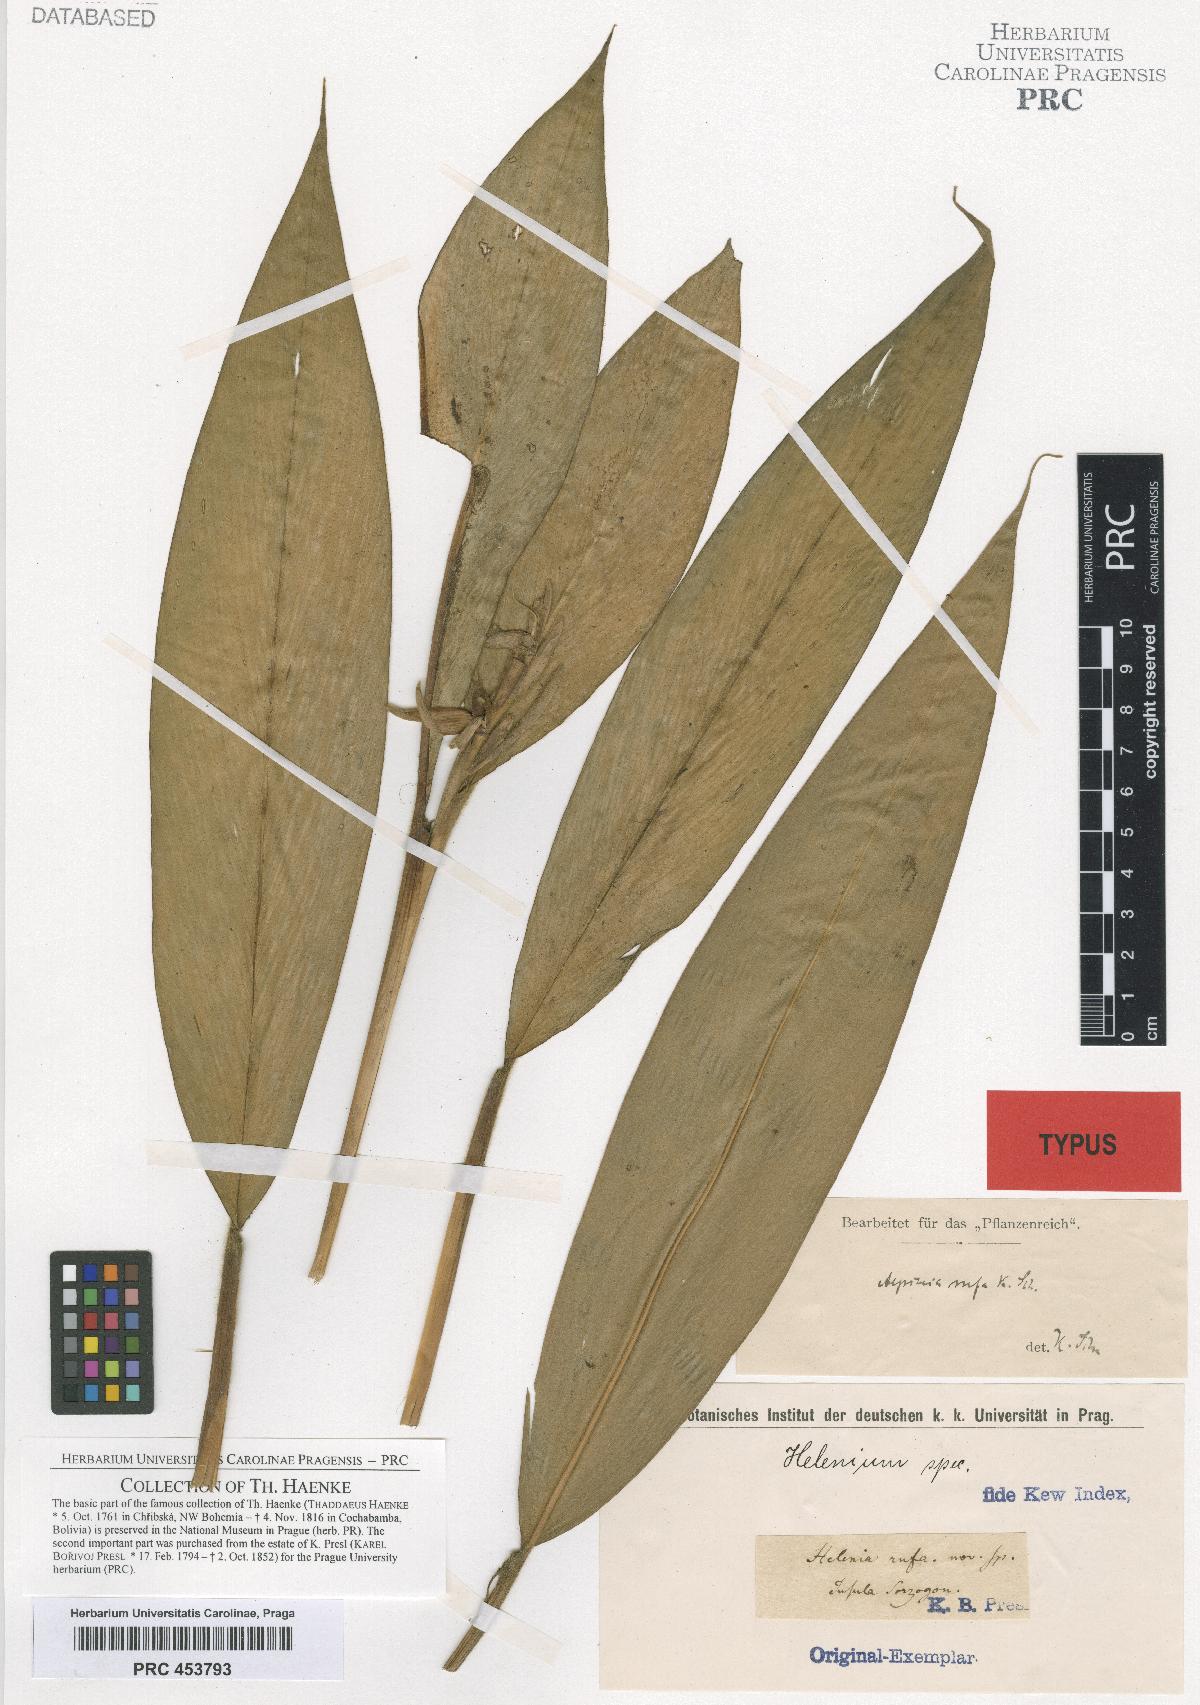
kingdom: Plantae
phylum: Tracheophyta
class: Magnoliopsida
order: Asterales
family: Asteraceae
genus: Helenium
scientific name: Helenium
